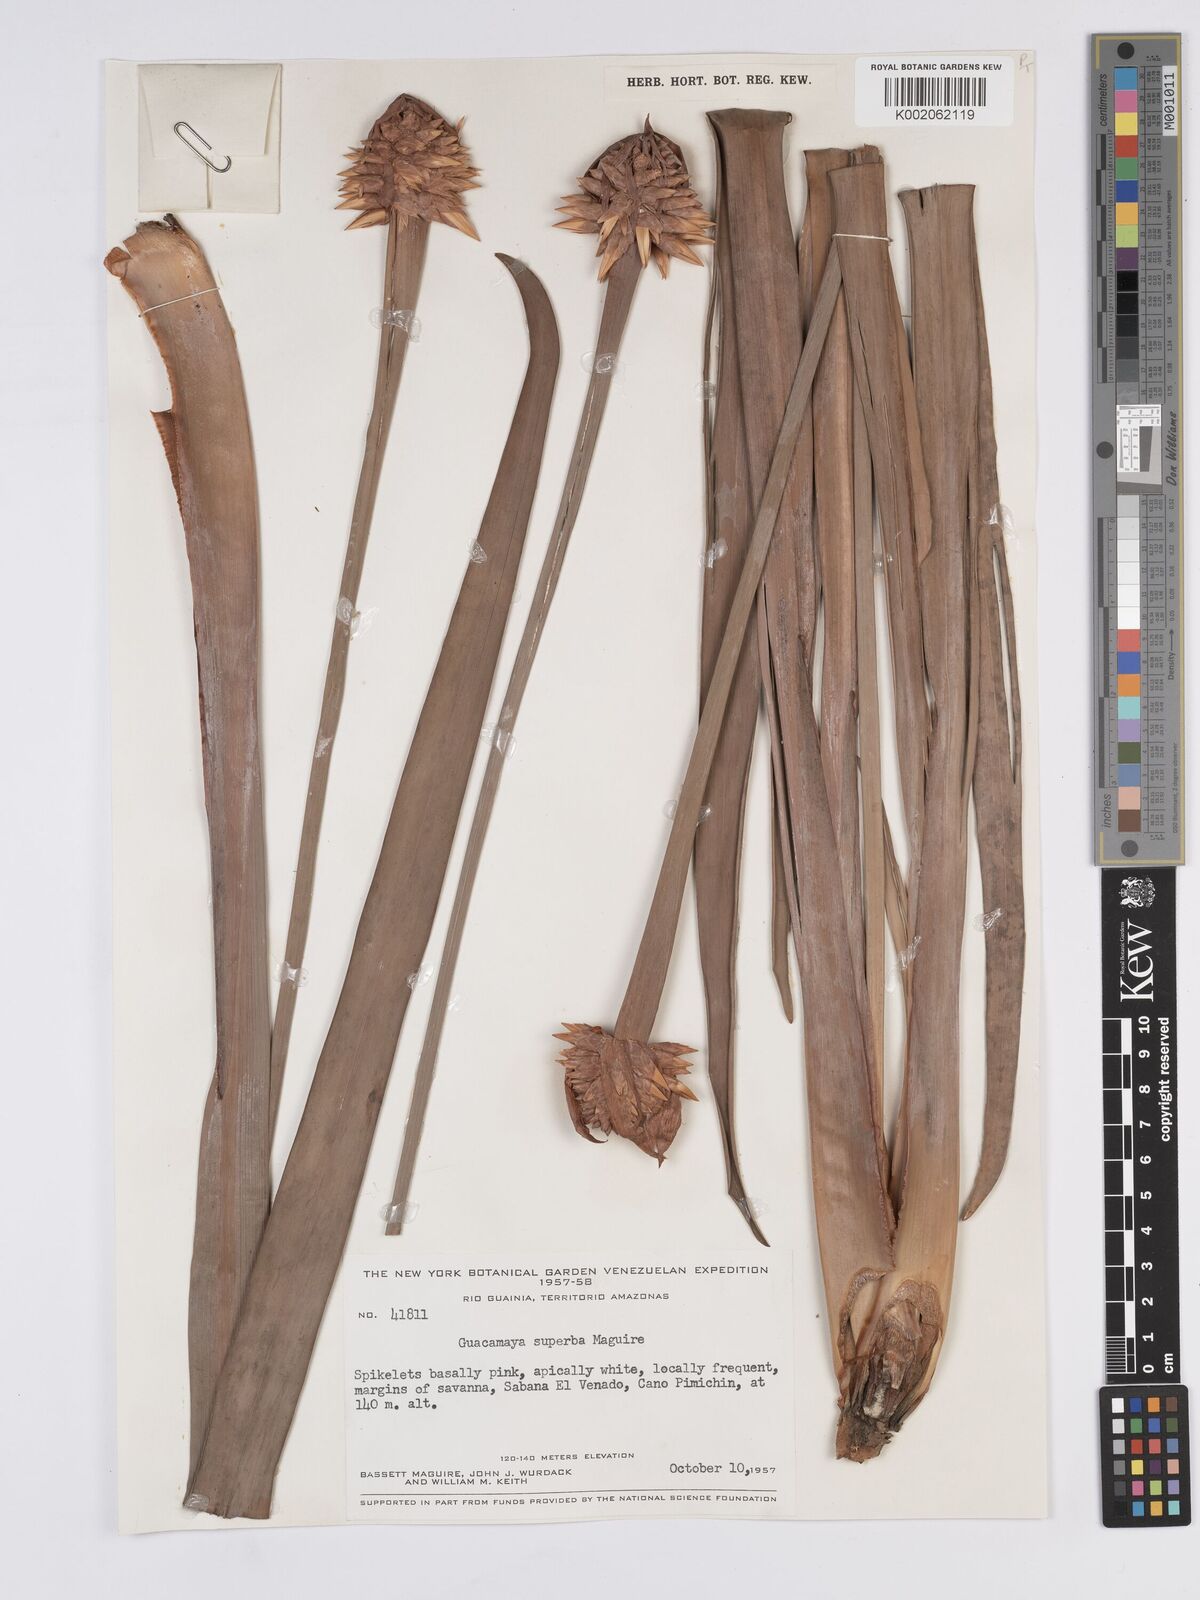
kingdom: Plantae
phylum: Tracheophyta
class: Liliopsida
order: Poales
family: Rapateaceae
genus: Guacamaya
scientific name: Guacamaya superba
